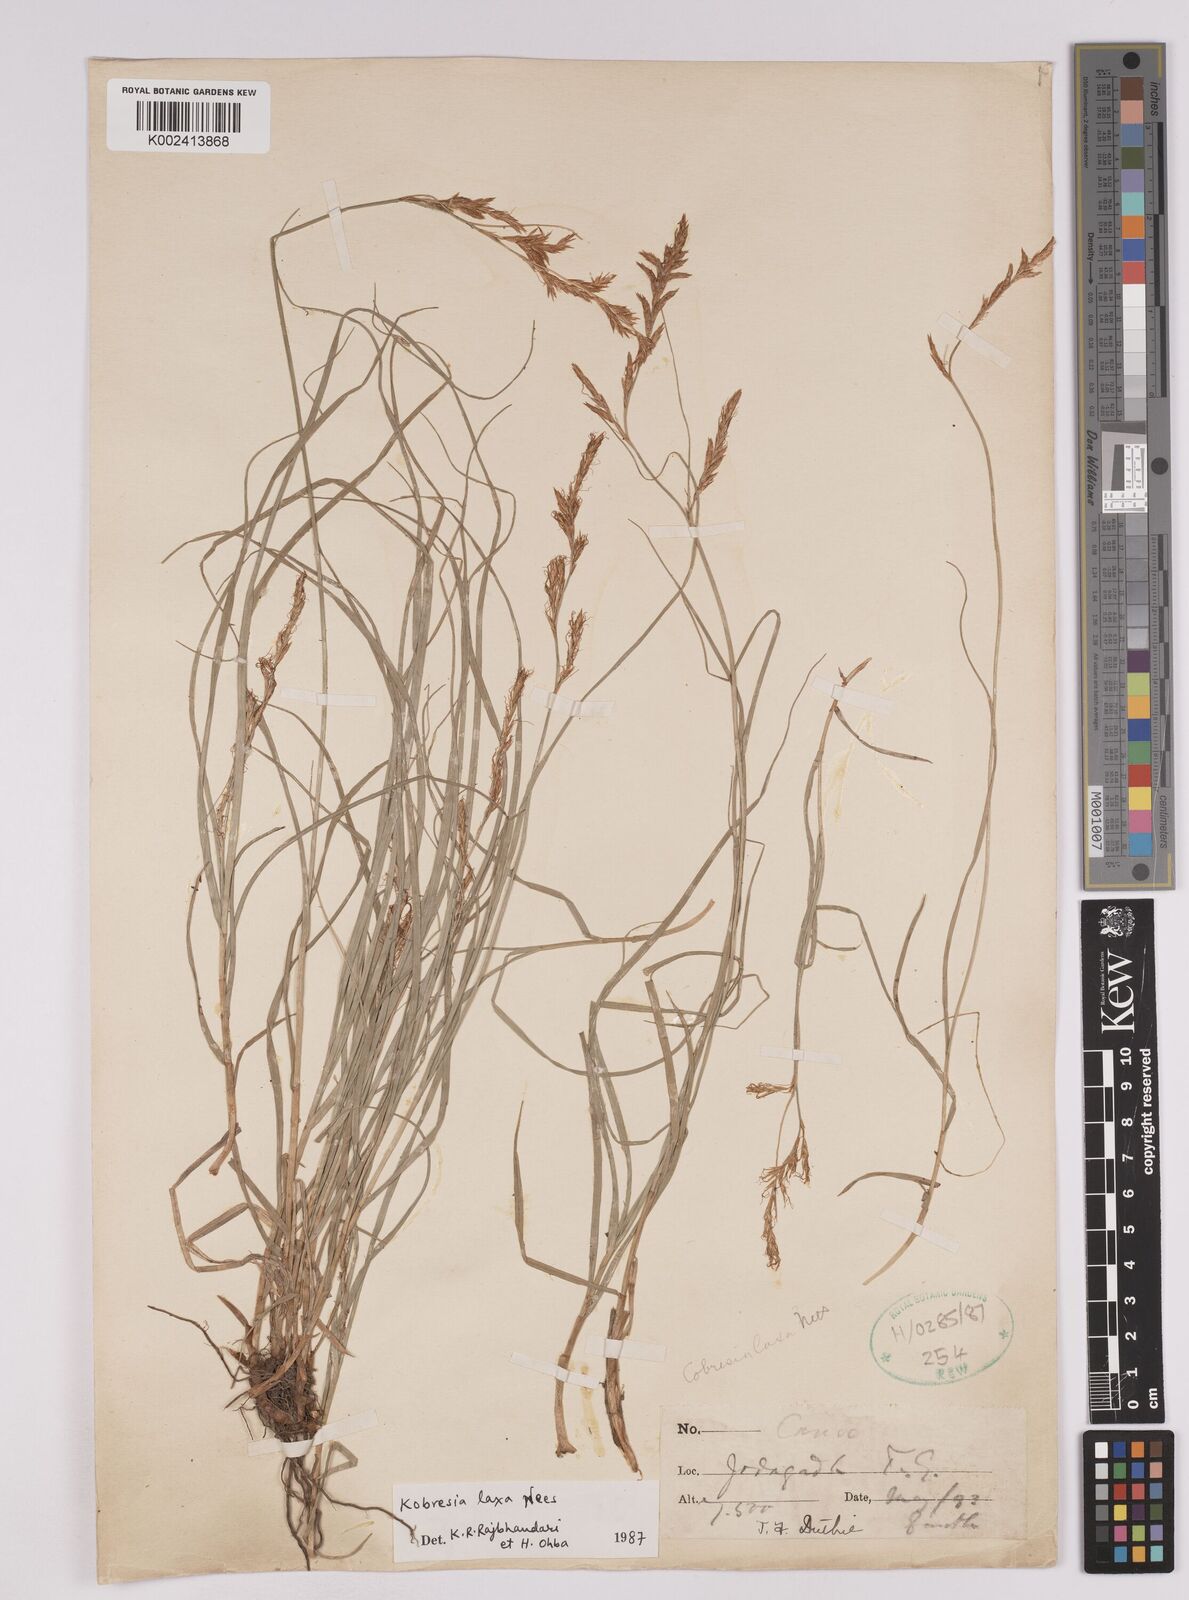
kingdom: Plantae
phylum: Tracheophyta
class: Liliopsida
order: Poales
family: Cyperaceae
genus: Carex
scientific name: Carex pseudolaxa
